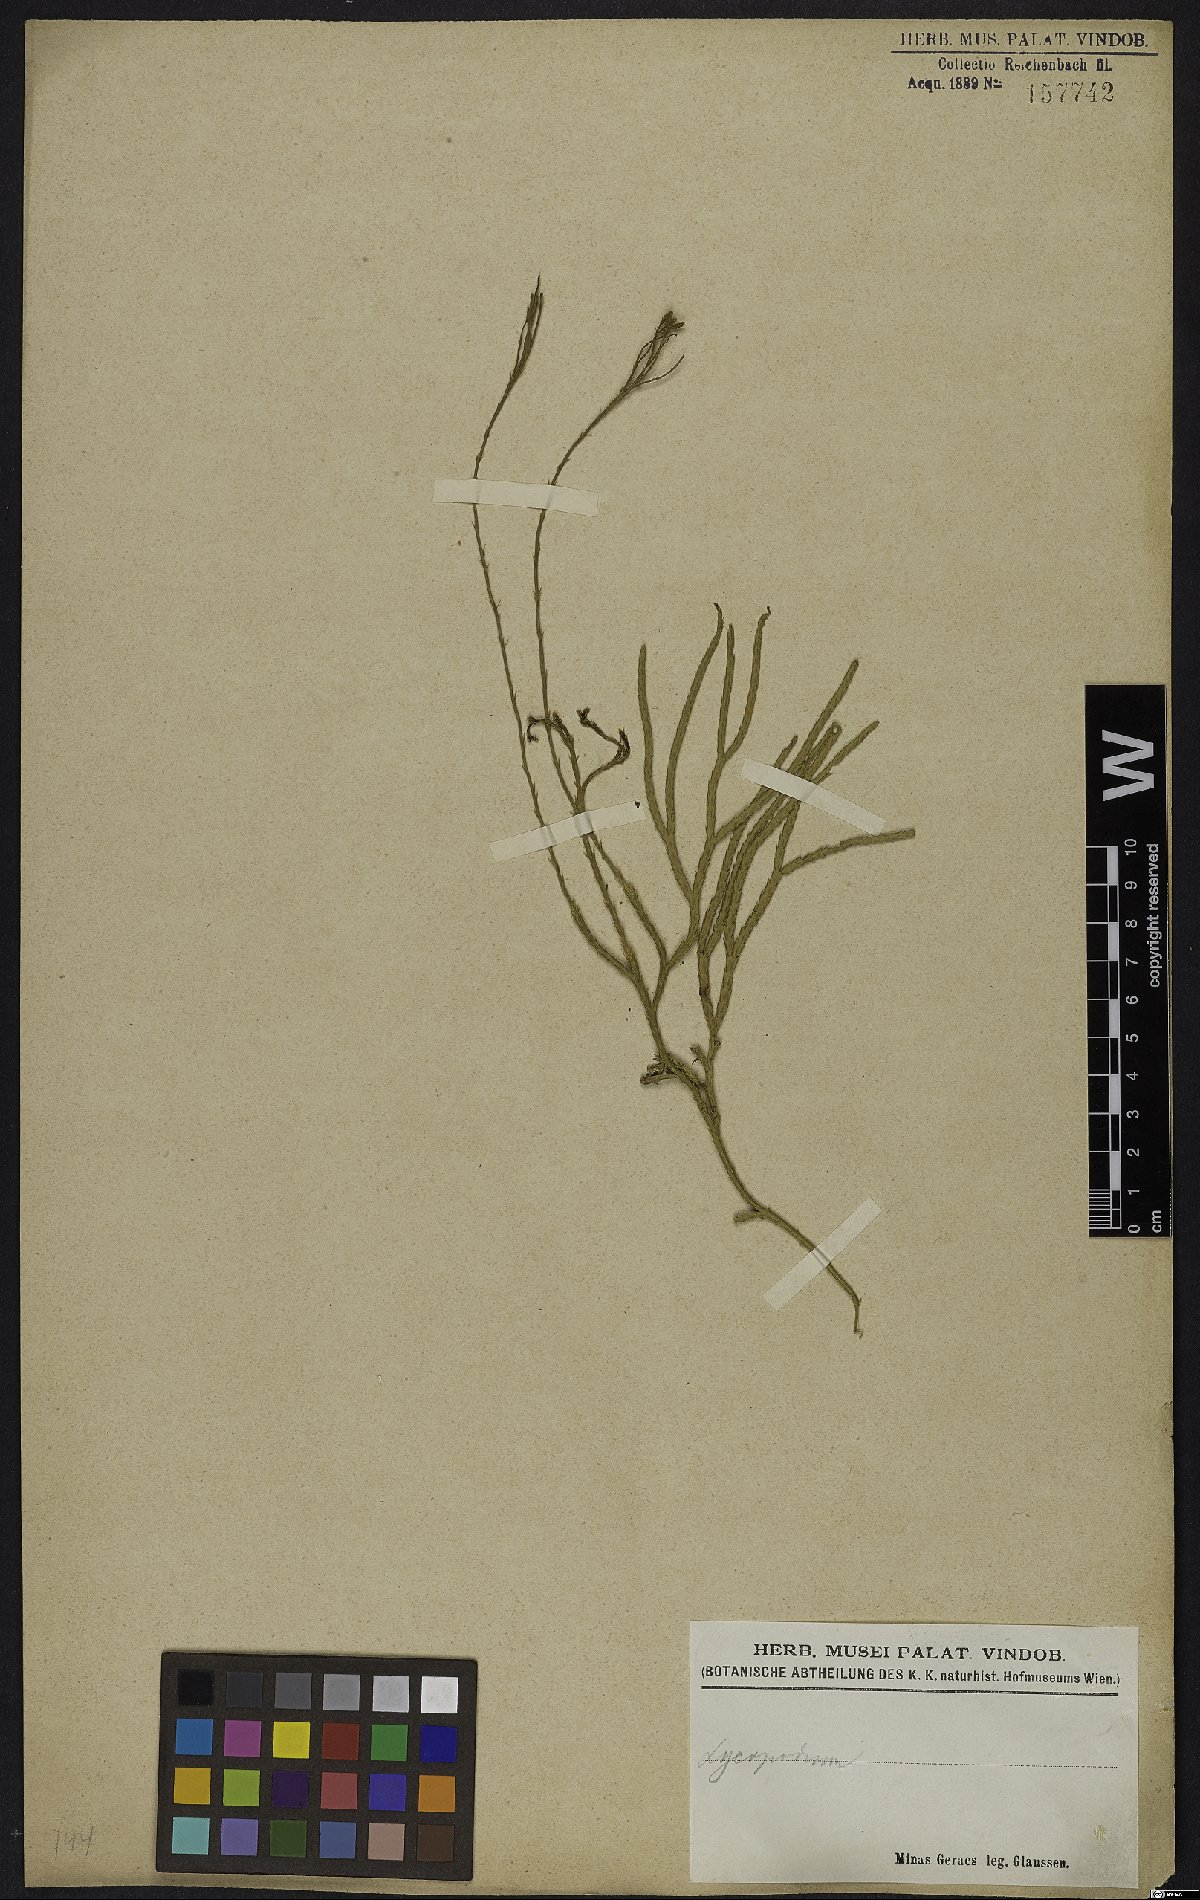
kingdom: Plantae
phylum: Tracheophyta
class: Lycopodiopsida
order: Lycopodiales
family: Lycopodiaceae
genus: Lycopodium
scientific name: Lycopodium
